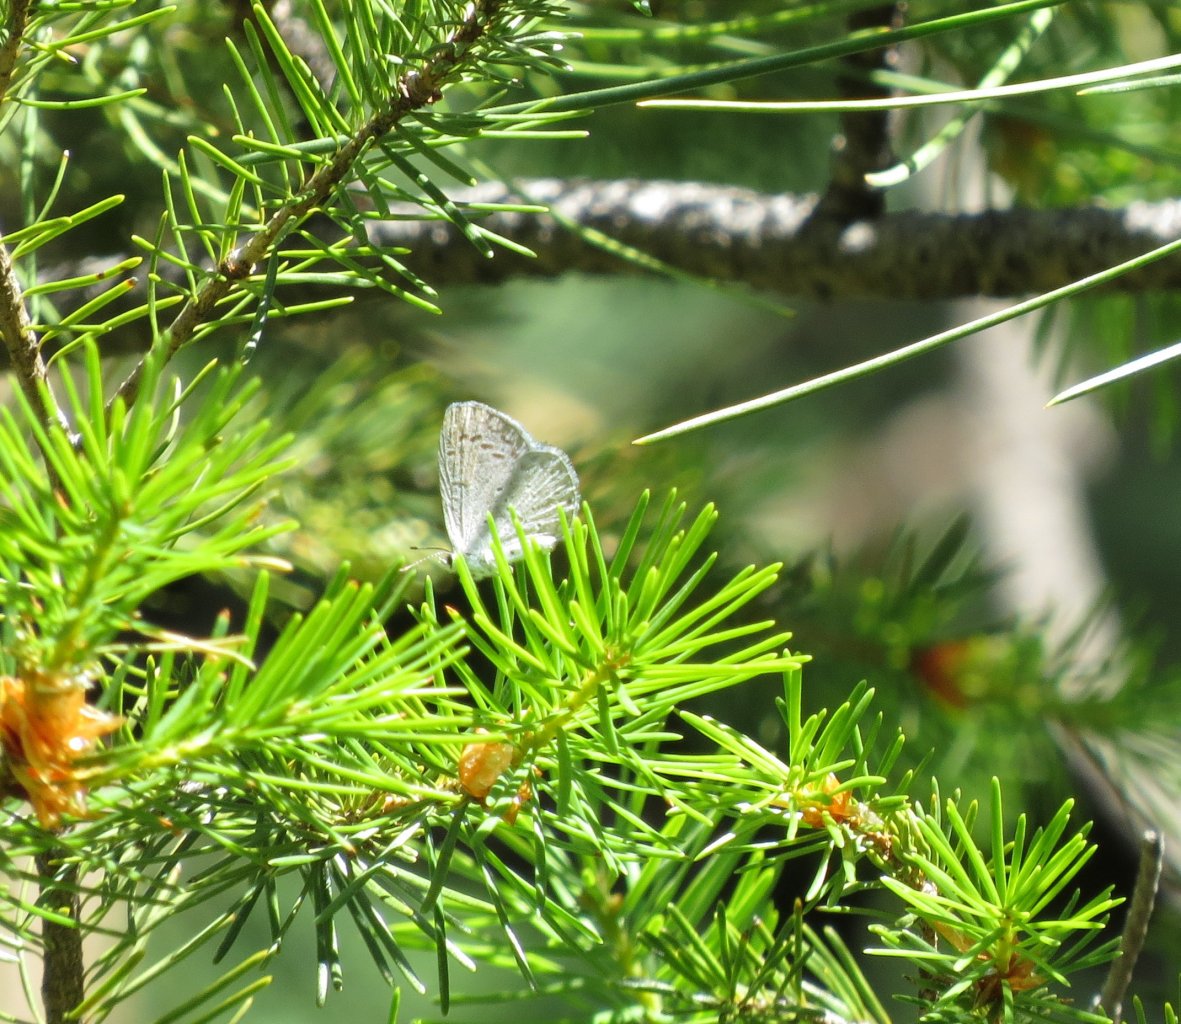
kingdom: Animalia
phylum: Arthropoda
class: Insecta
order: Lepidoptera
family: Lycaenidae
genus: Celastrina
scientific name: Celastrina ladon
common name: Spring Azure
